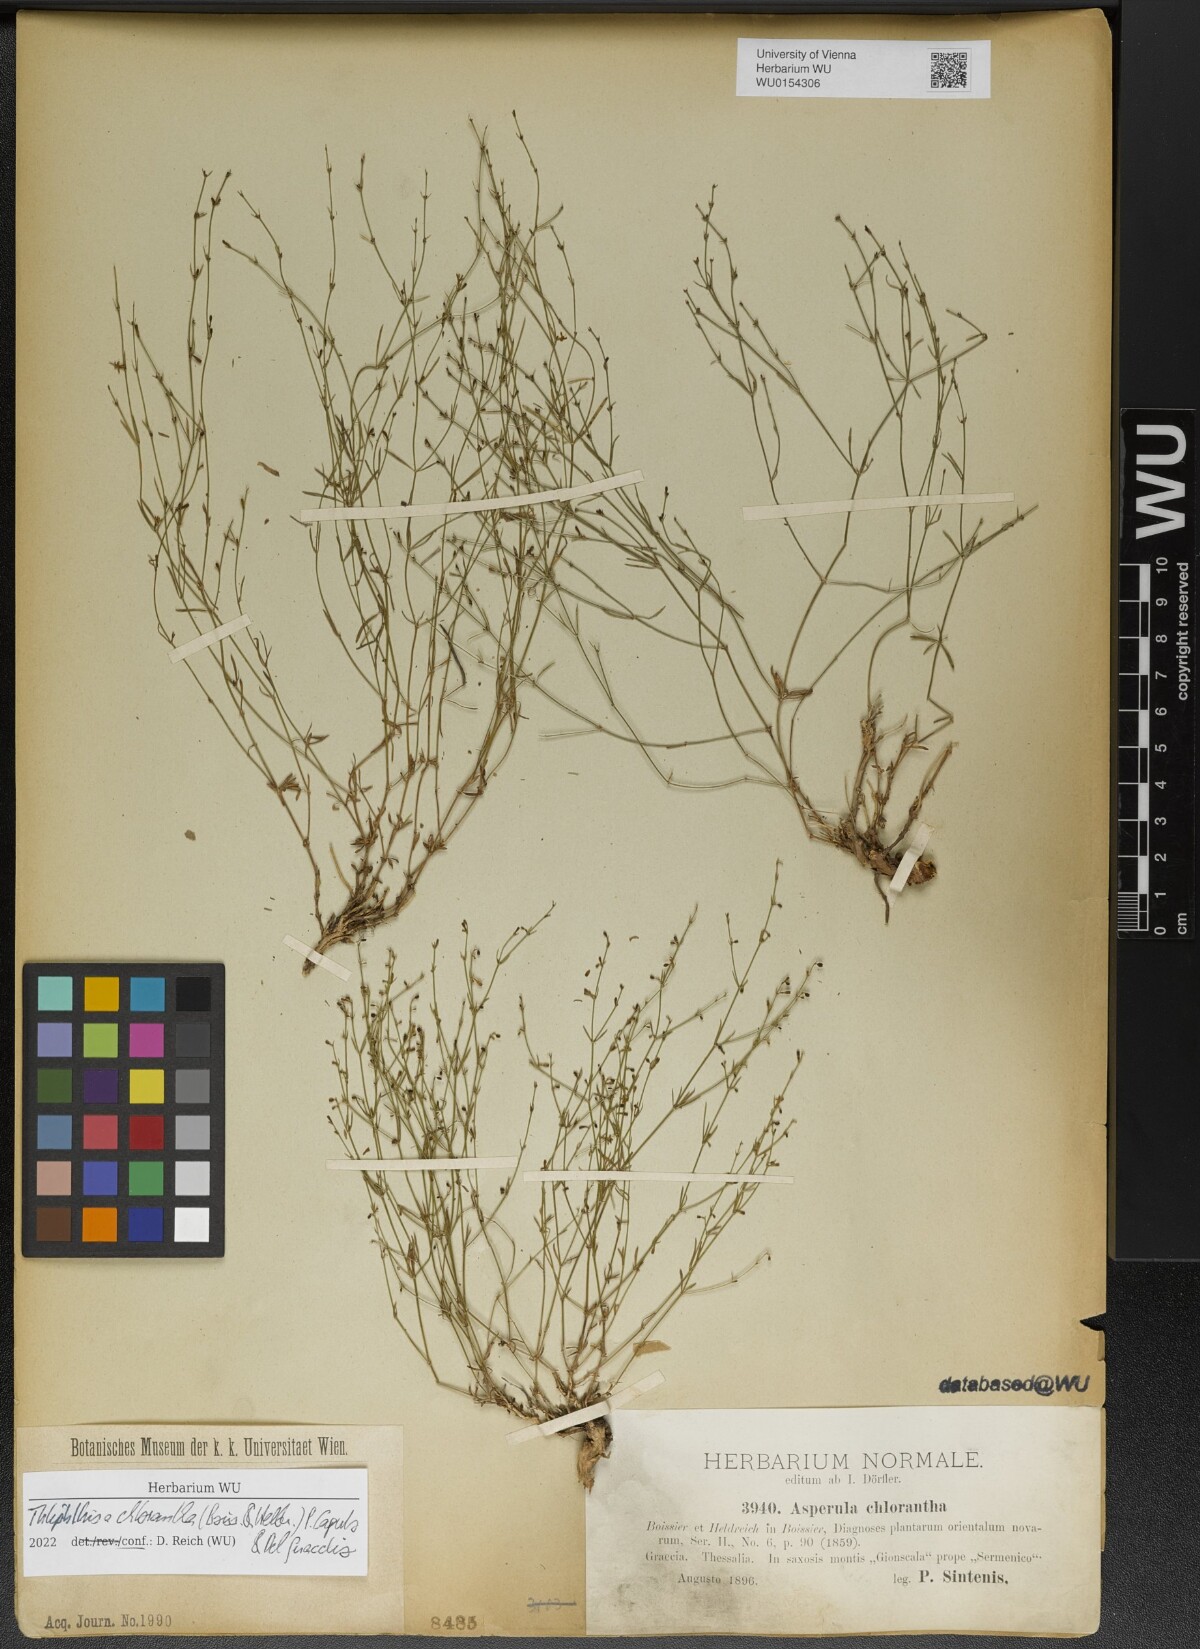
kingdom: Plantae
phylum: Tracheophyta
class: Magnoliopsida
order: Gentianales
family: Rubiaceae
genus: Thliphthisa
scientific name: Thliphthisa chlorantha
